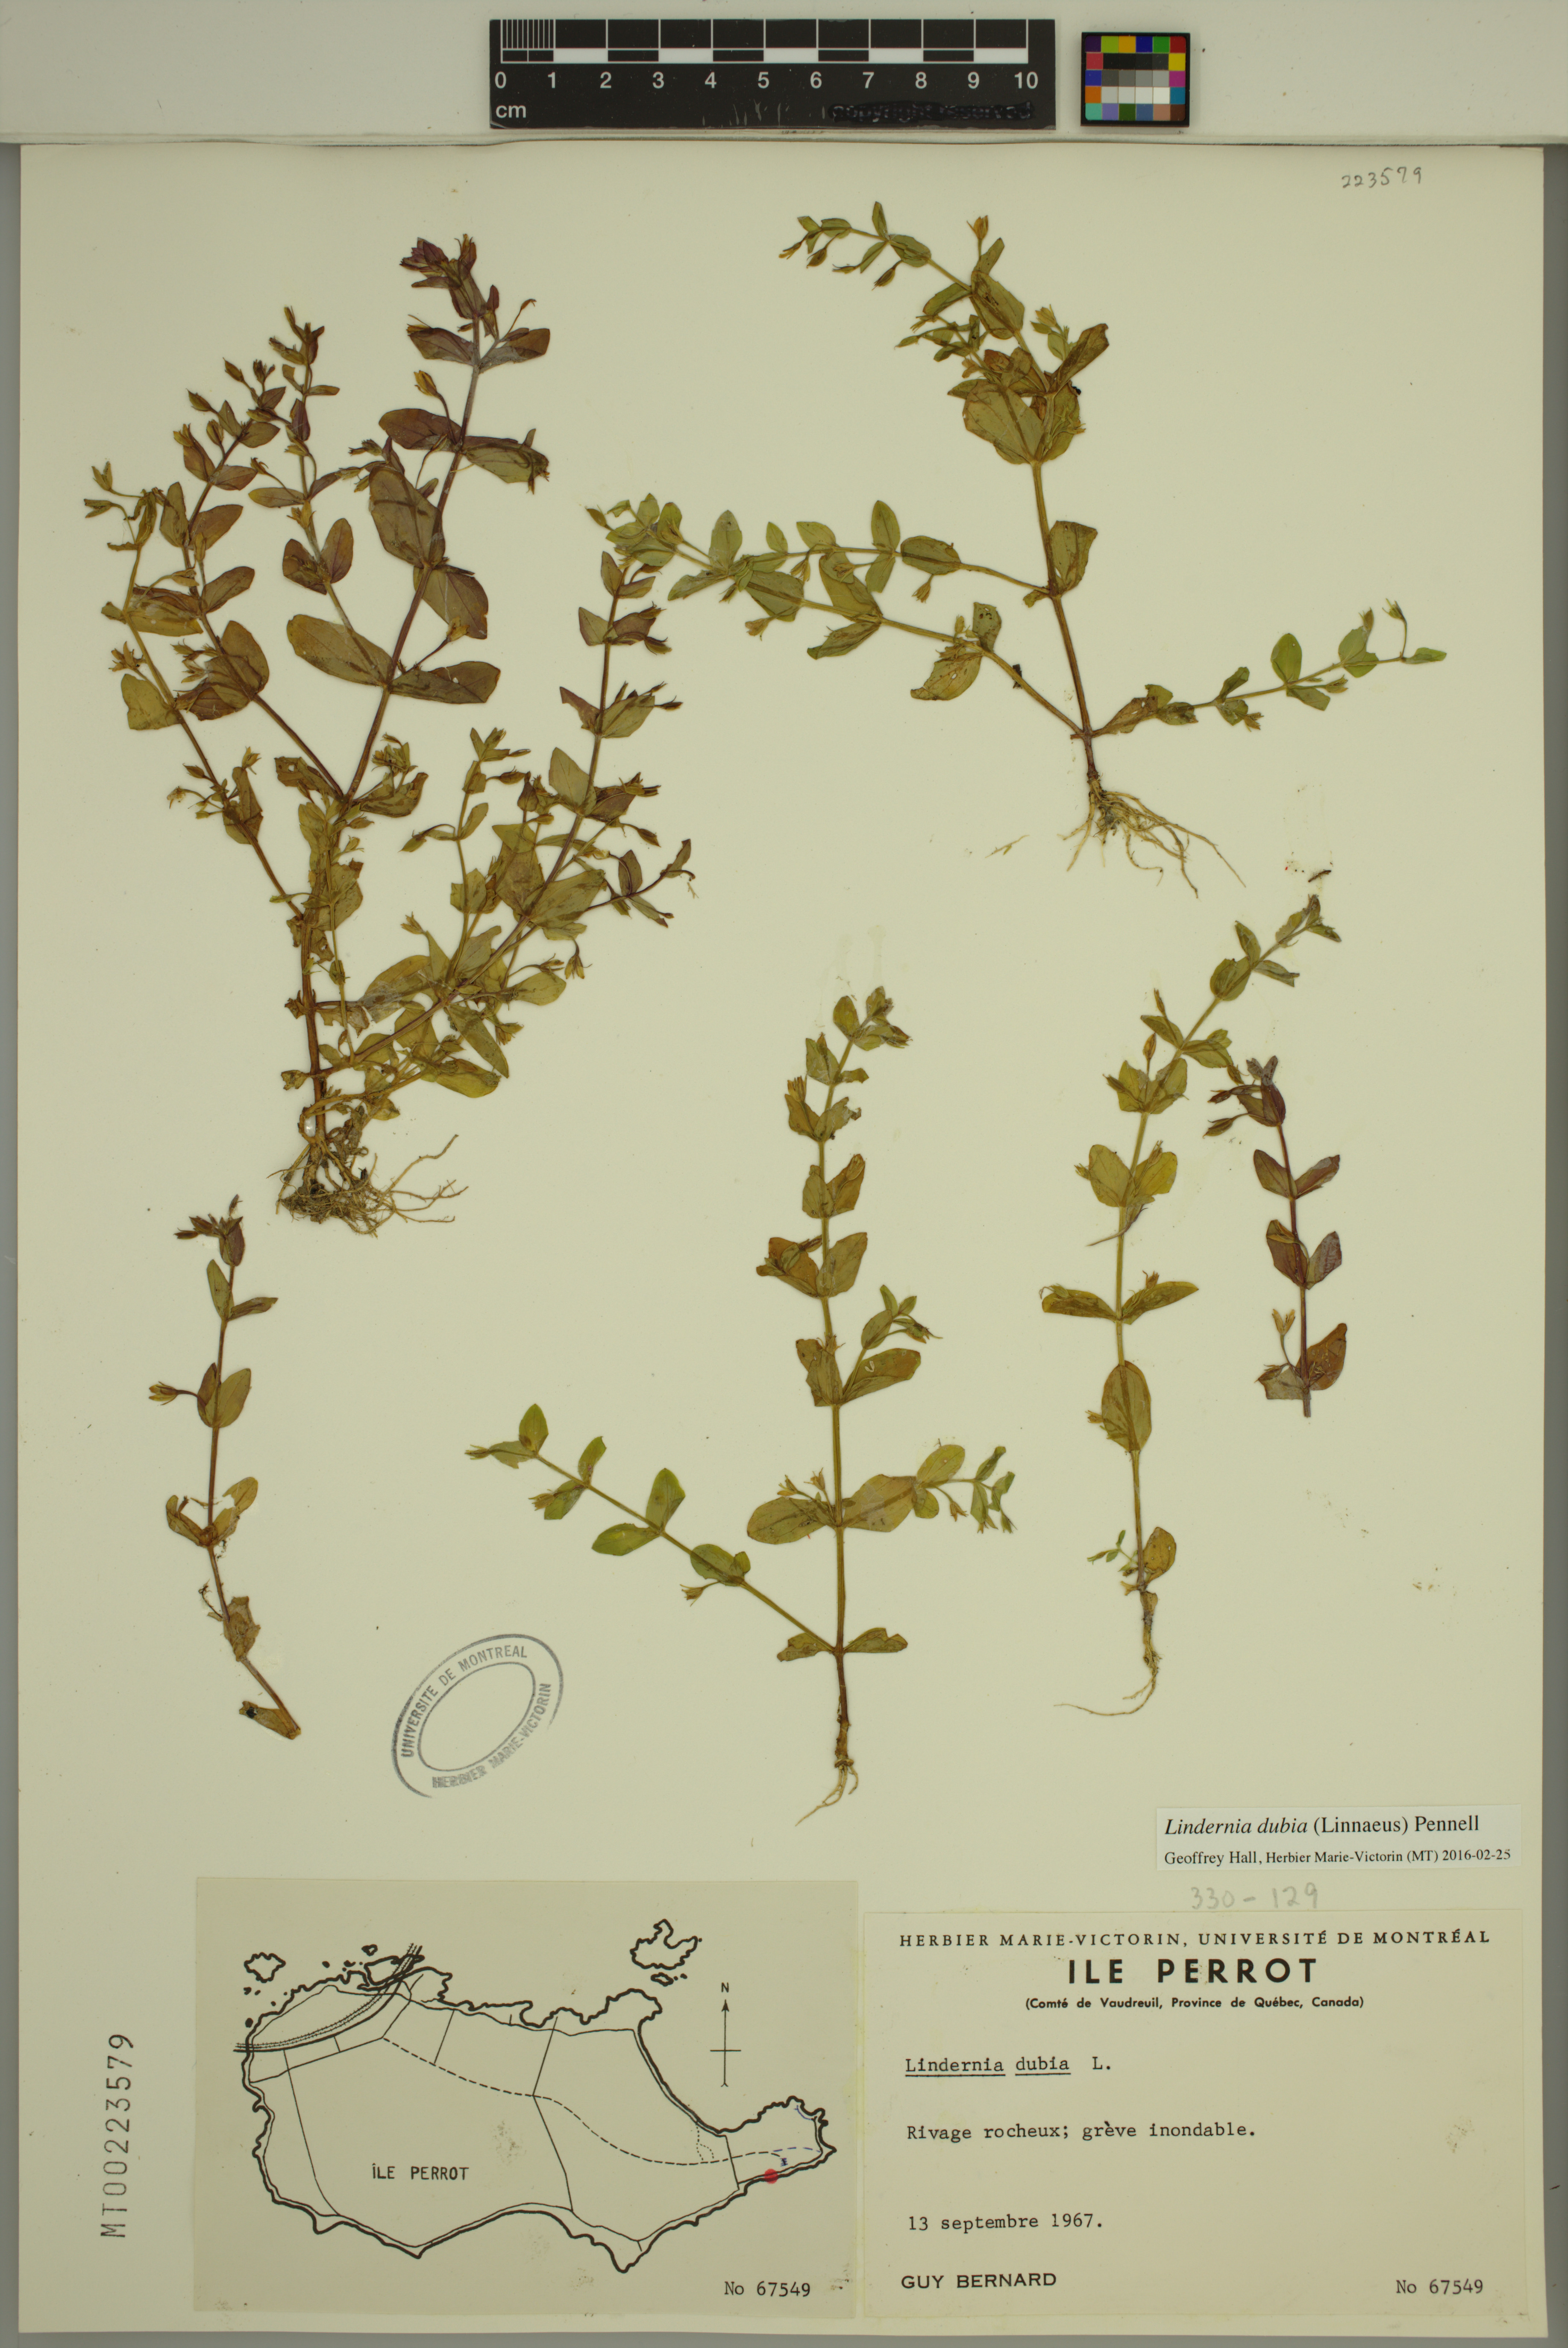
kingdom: Plantae
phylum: Tracheophyta
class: Magnoliopsida
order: Lamiales
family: Linderniaceae
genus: Lindernia
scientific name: Lindernia dubia
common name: Annual false pimpernel
